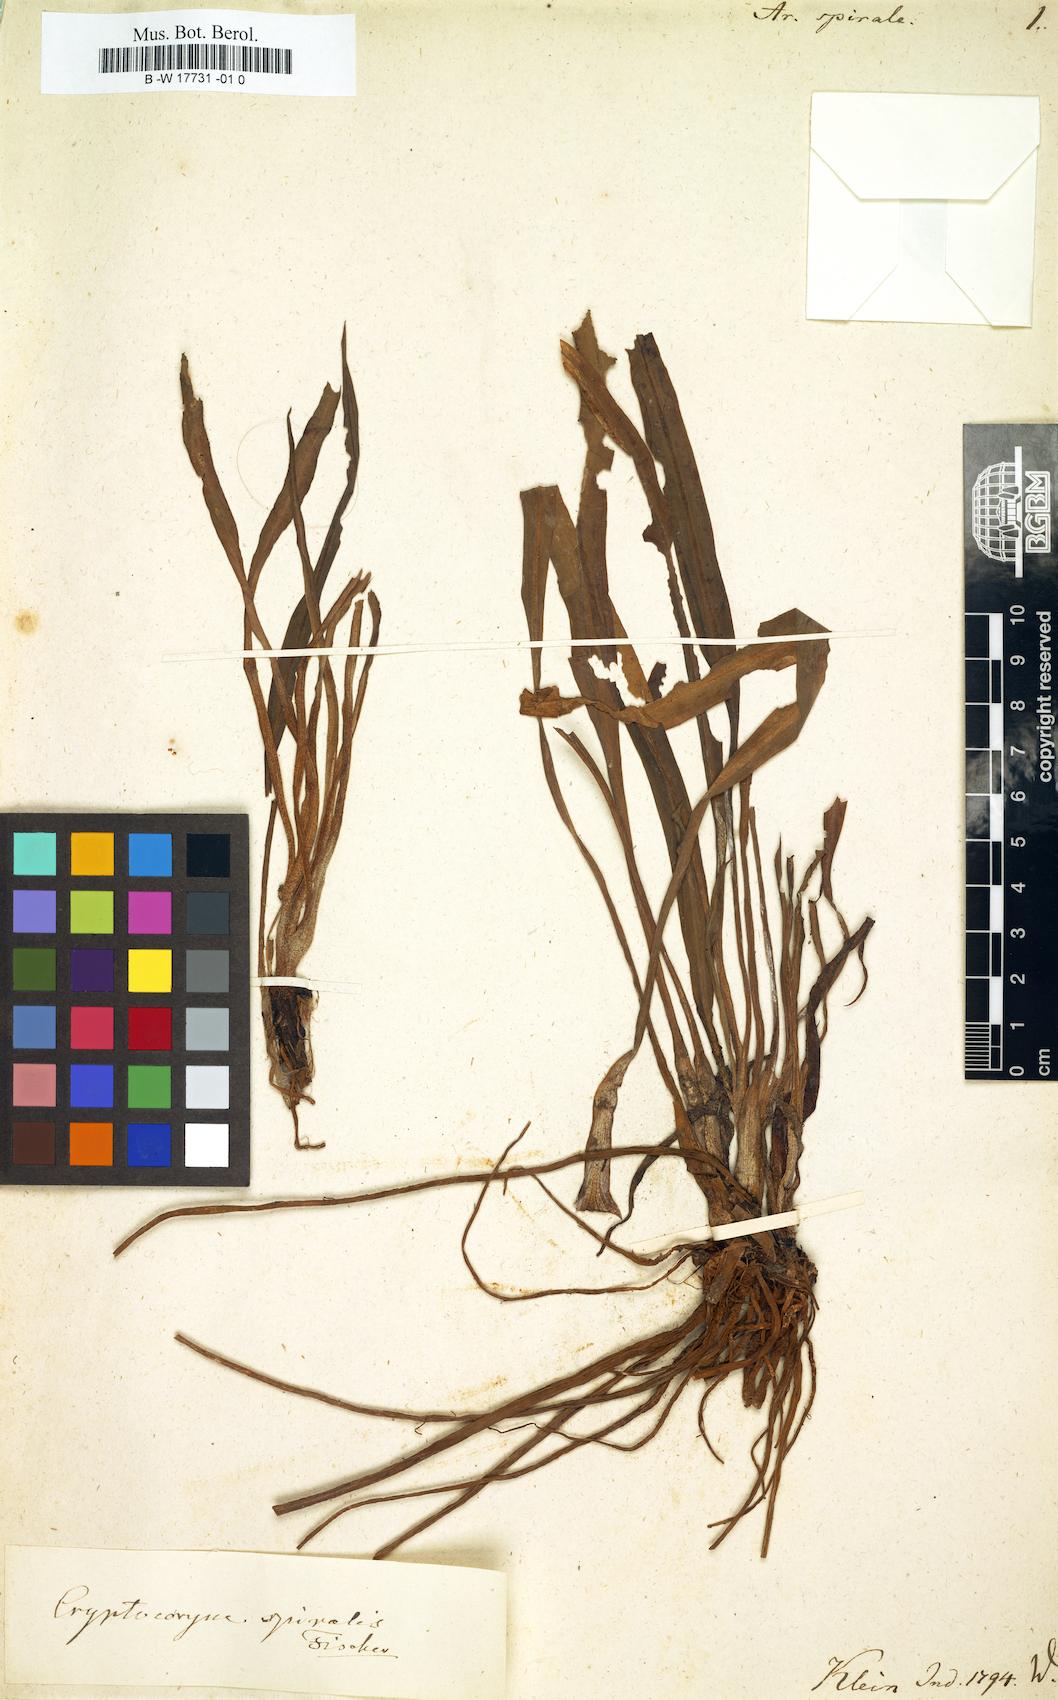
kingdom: Plantae
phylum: Tracheophyta
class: Liliopsida
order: Alismatales
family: Araceae
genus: Cryptocoryne
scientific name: Cryptocoryne spiralis
